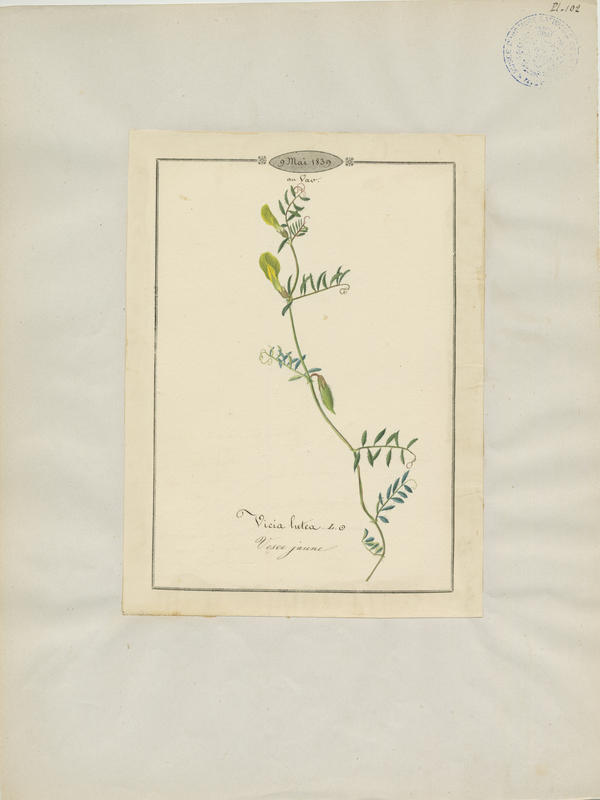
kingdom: Plantae
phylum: Tracheophyta
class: Magnoliopsida
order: Fabales
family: Fabaceae
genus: Vicia
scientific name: Vicia lutea
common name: Smooth yellow vetch
